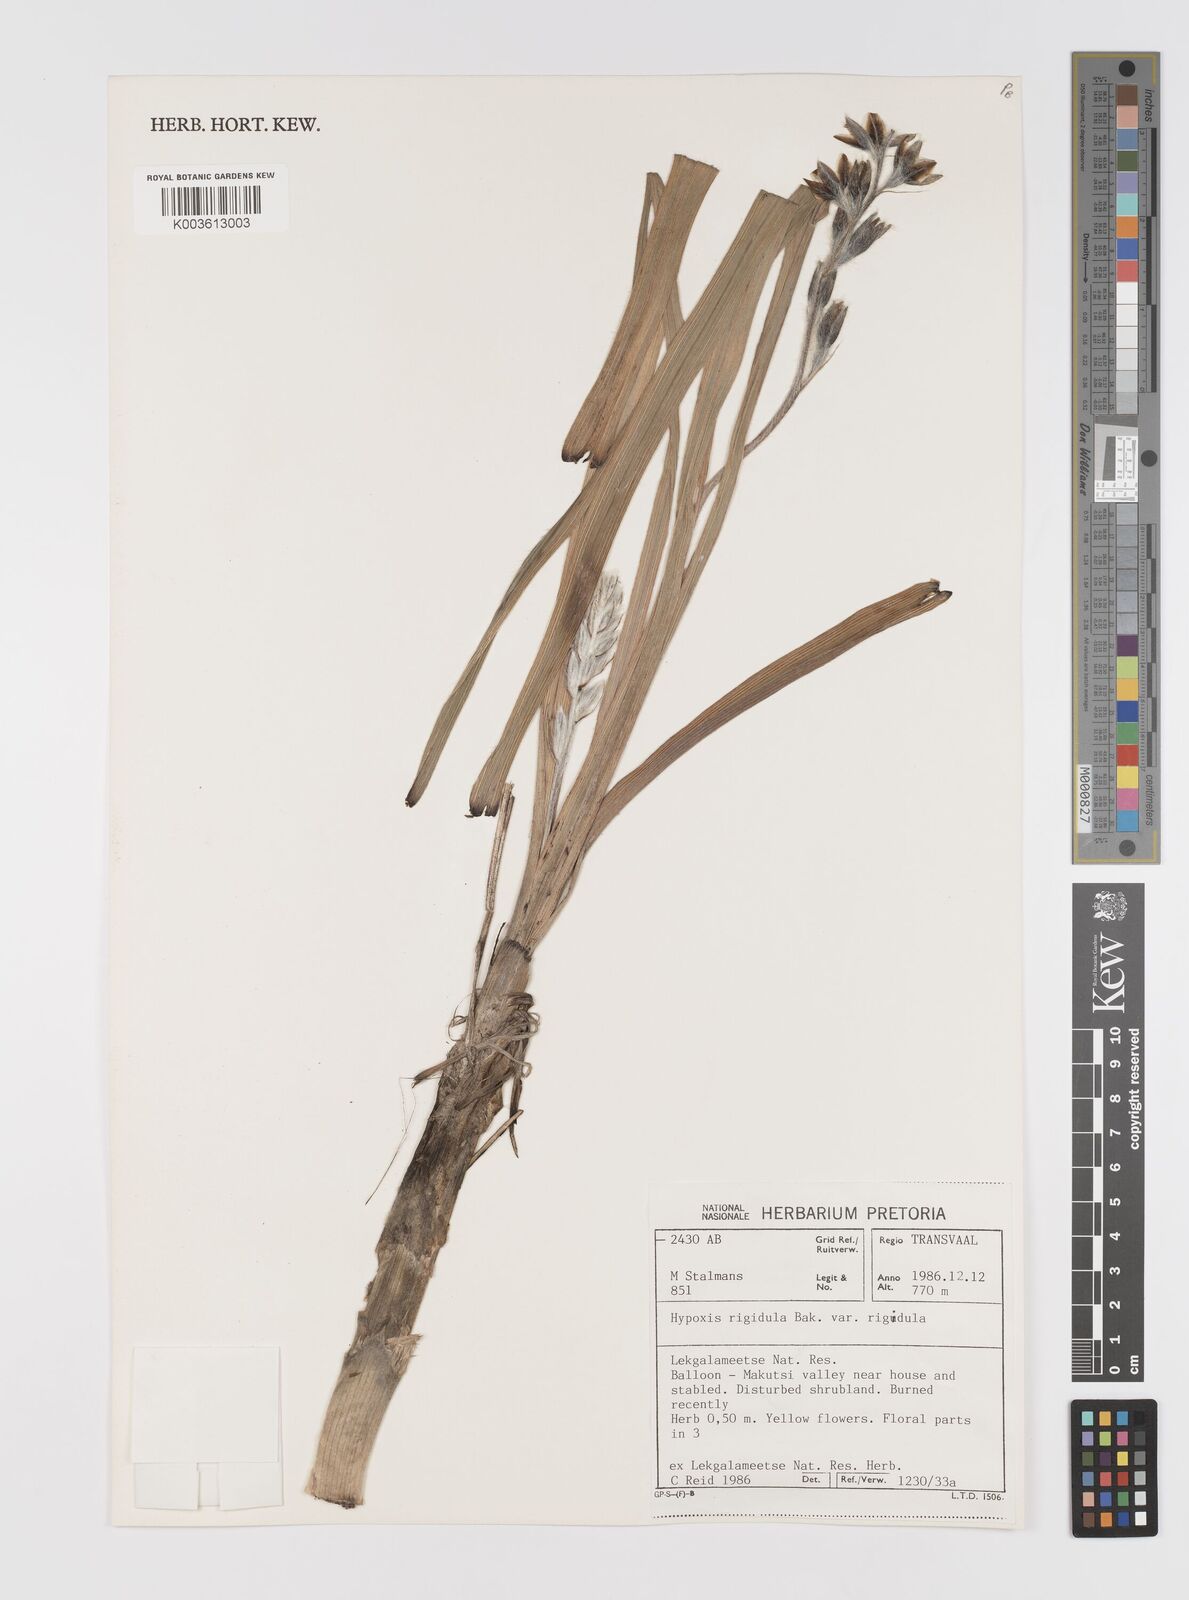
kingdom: Plantae
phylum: Tracheophyta
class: Liliopsida
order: Asparagales
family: Hypoxidaceae
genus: Hypoxis
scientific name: Hypoxis rigidula
